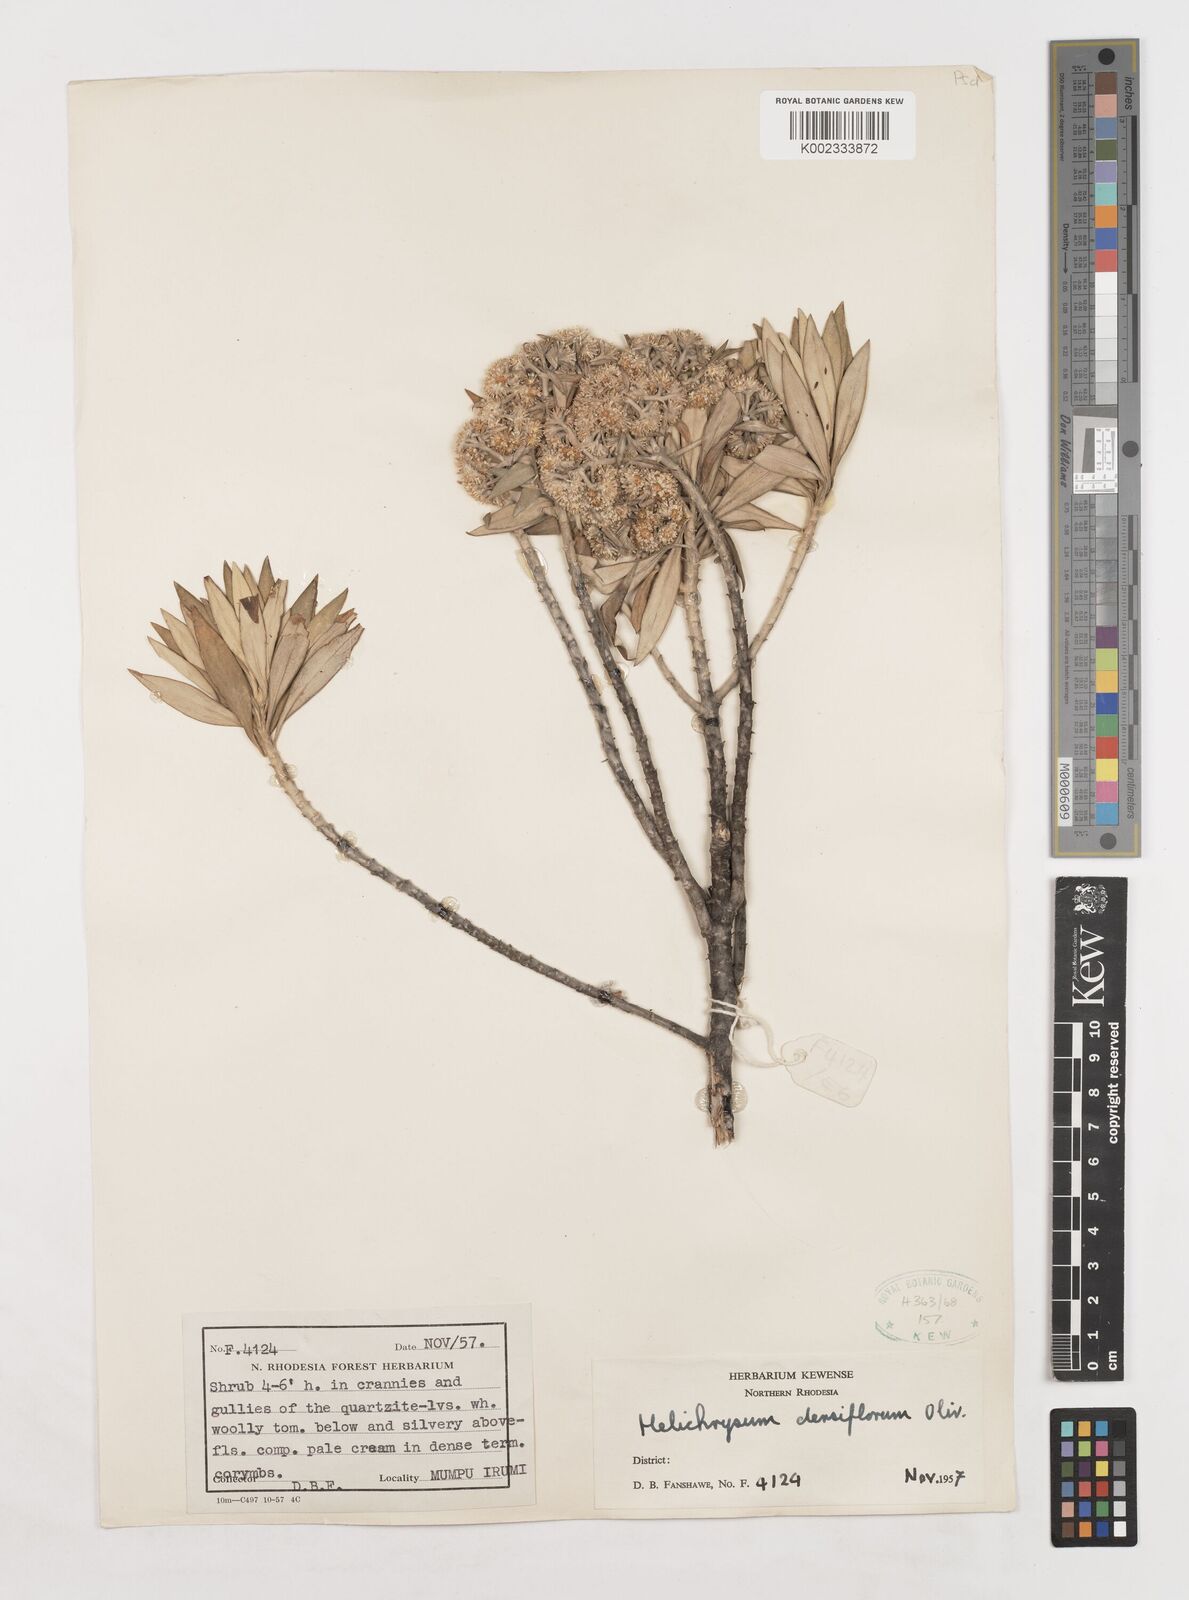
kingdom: Plantae
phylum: Tracheophyta
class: Magnoliopsida
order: Asterales
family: Asteraceae
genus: Helichrysum
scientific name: Helichrysum densiflorum
